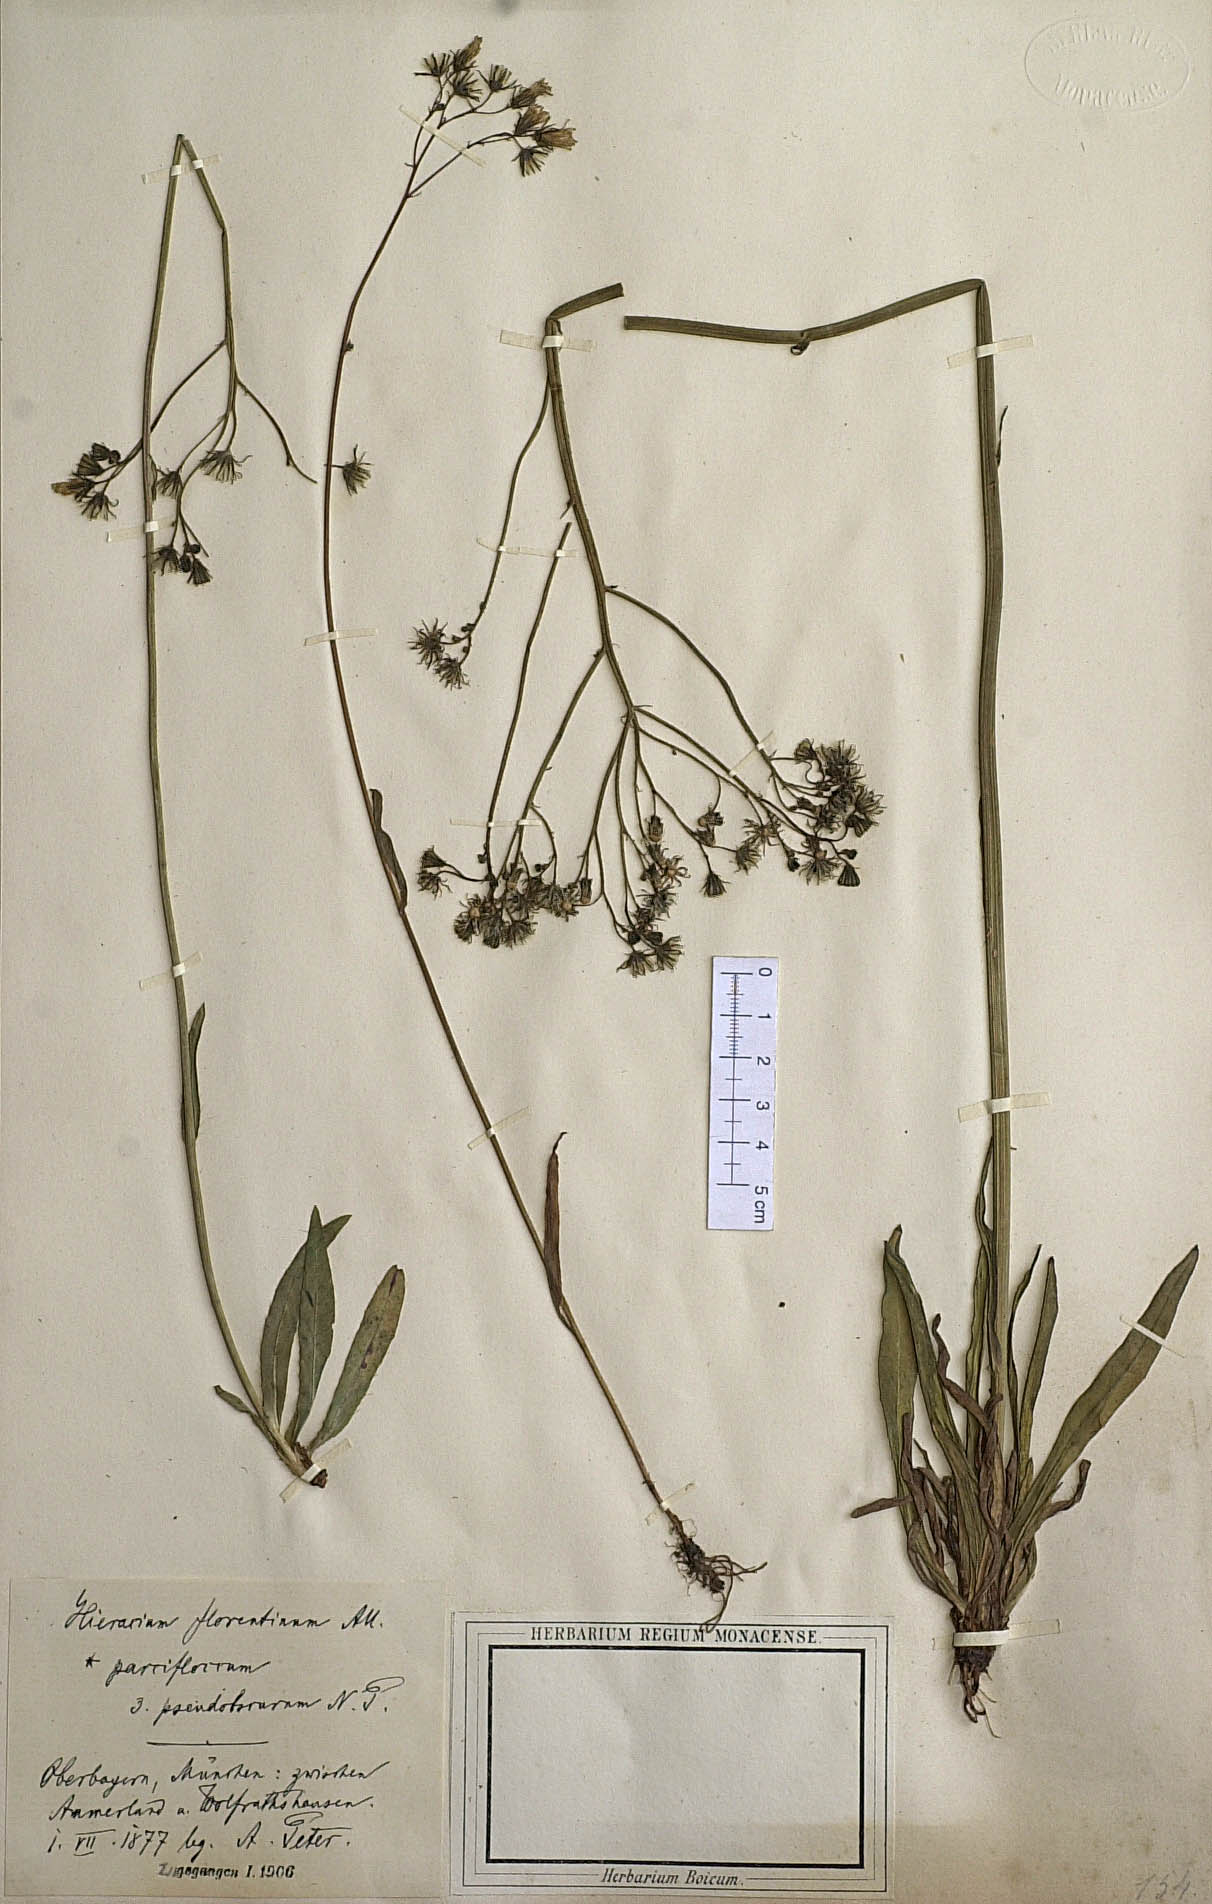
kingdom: Plantae
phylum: Tracheophyta
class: Magnoliopsida
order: Asterales
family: Asteraceae
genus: Pilosella
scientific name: Pilosella piloselloides
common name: Glaucous king-devil
